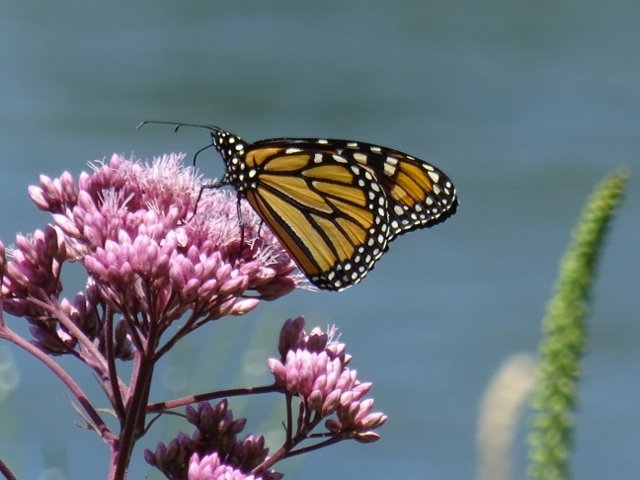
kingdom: Animalia
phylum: Arthropoda
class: Insecta
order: Lepidoptera
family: Nymphalidae
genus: Danaus
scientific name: Danaus plexippus
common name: Monarch
